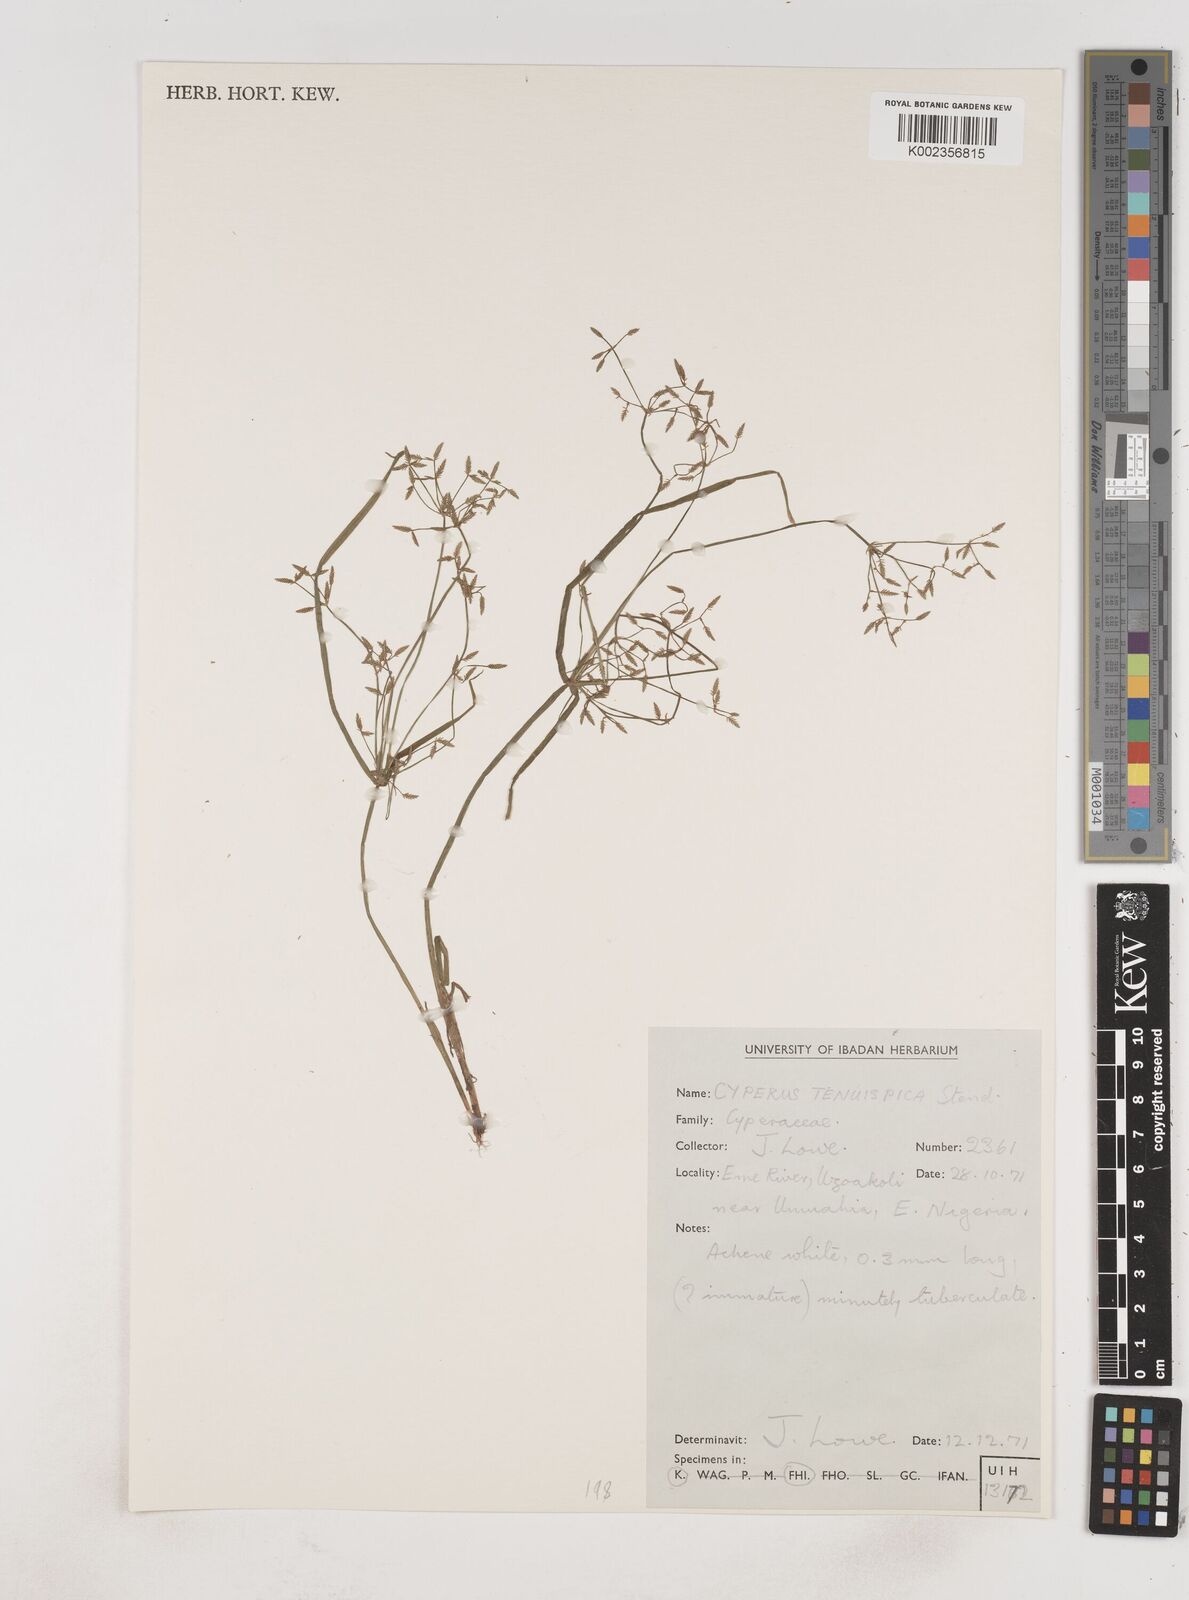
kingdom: Plantae
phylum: Tracheophyta
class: Liliopsida
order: Poales
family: Cyperaceae
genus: Cyperus
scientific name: Cyperus tenuispica
